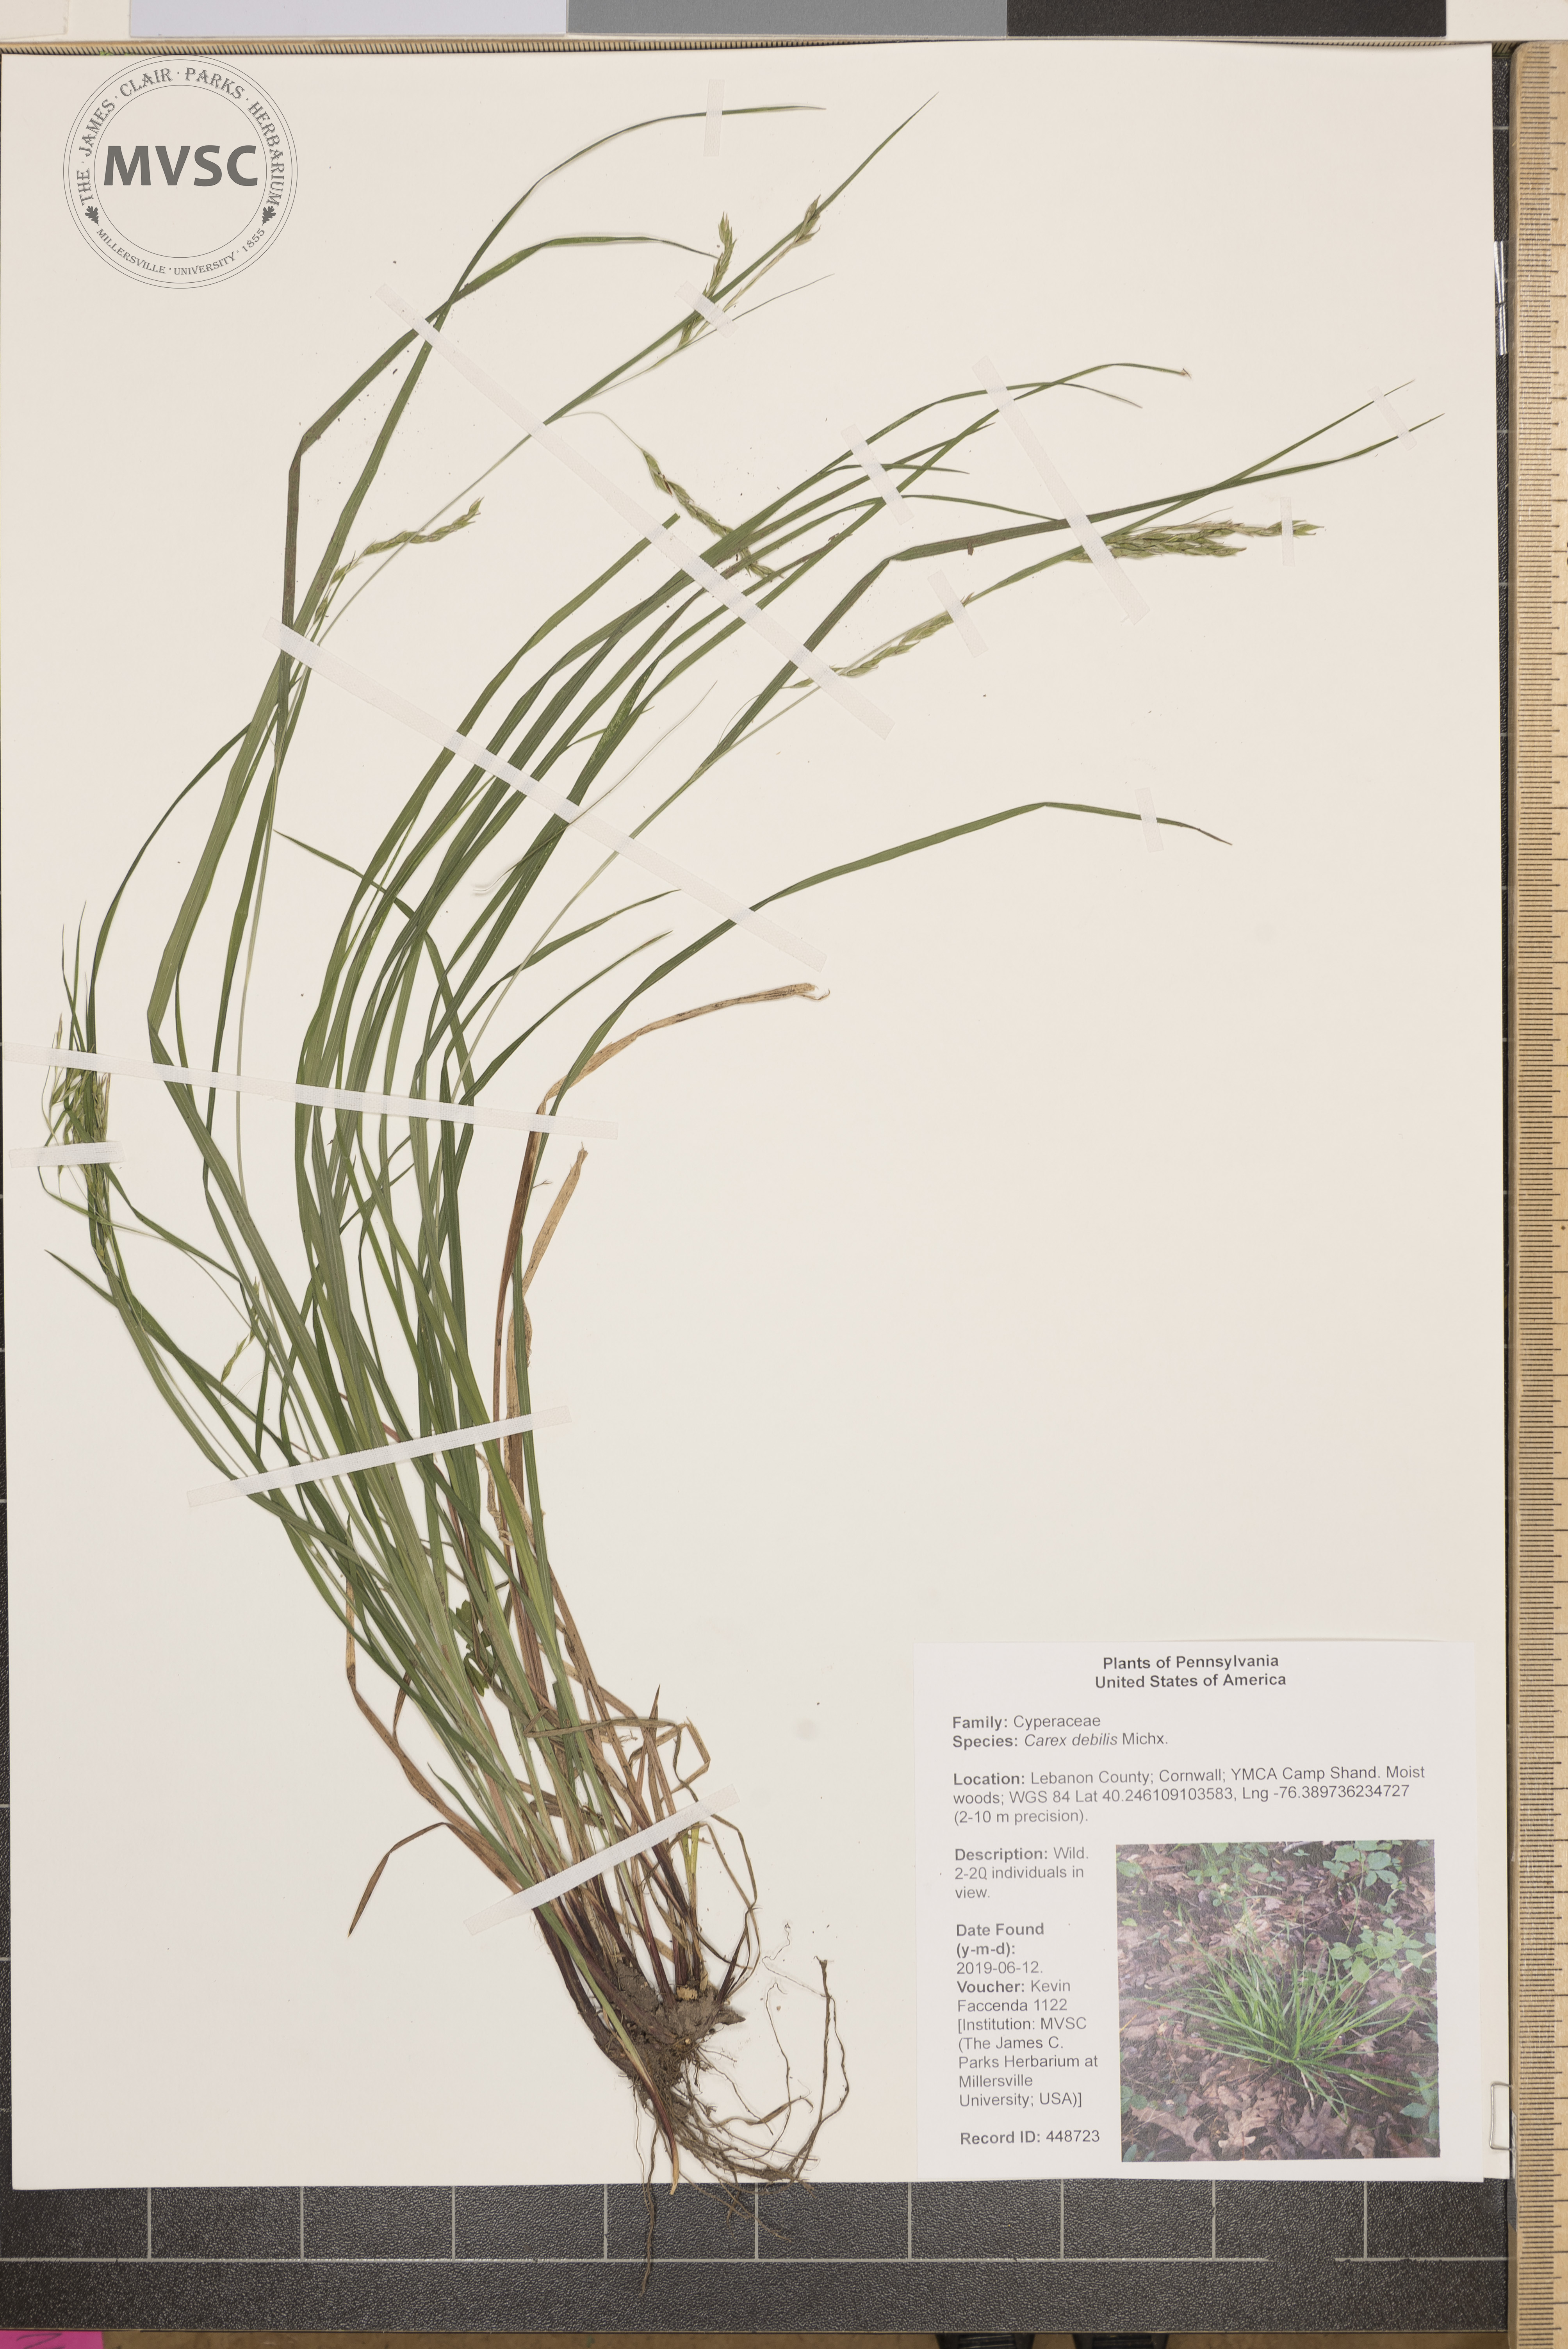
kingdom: Plantae
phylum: Tracheophyta
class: Liliopsida
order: Poales
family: Cyperaceae
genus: Carex
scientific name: Carex debilis
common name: White-edge sedge
